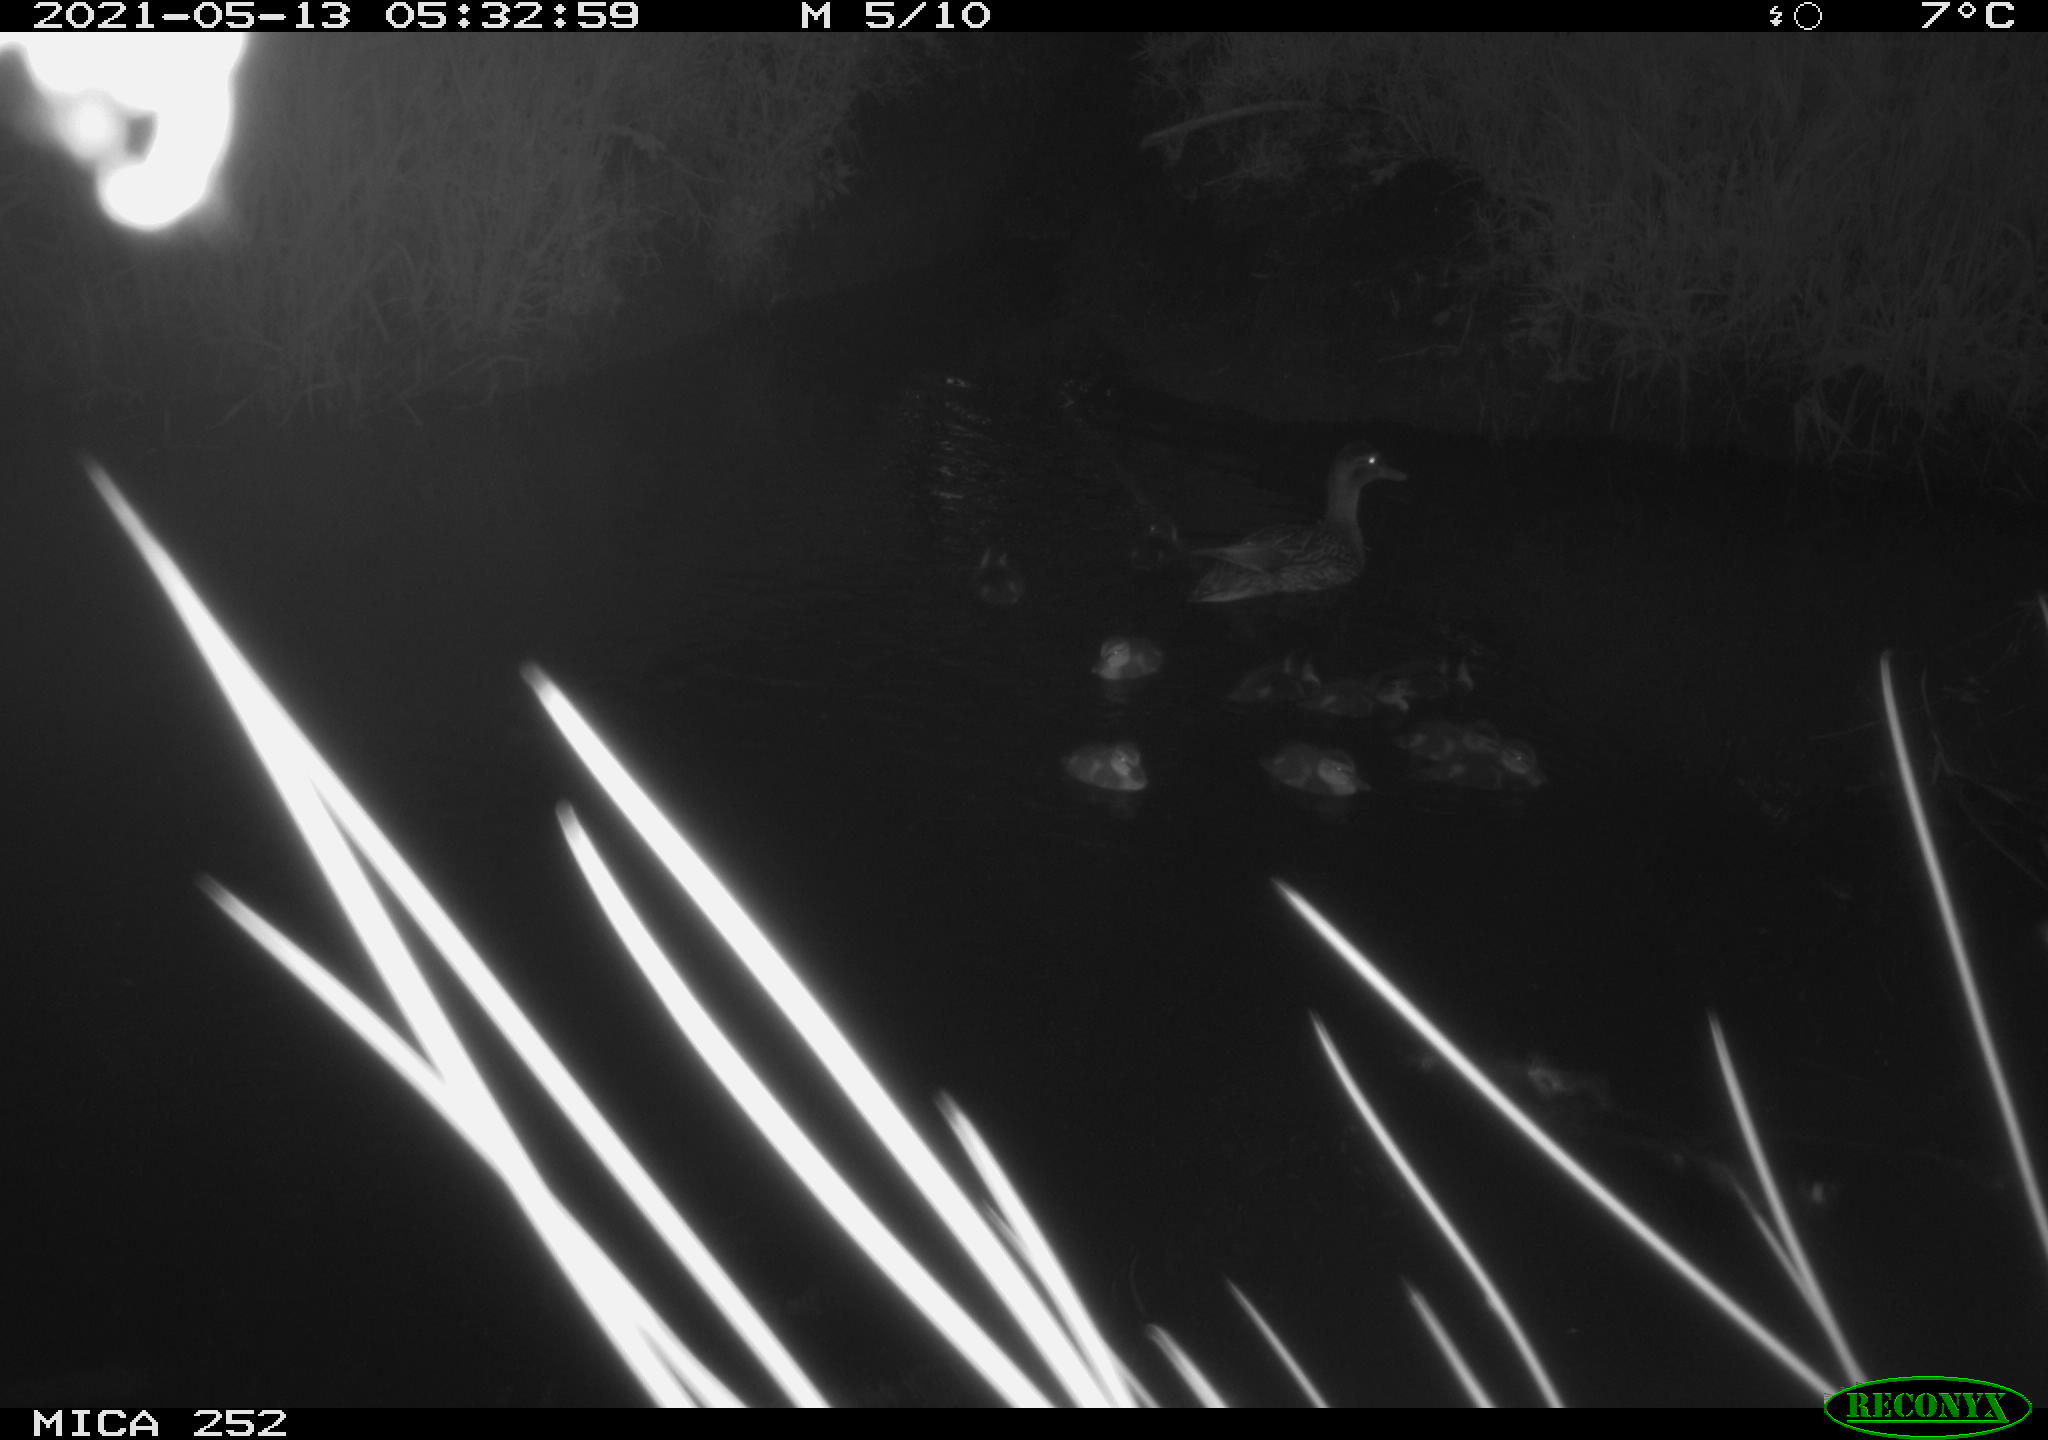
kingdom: Animalia
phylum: Chordata
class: Aves
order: Anseriformes
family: Anatidae
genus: Anas
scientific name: Anas platyrhynchos
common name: Mallard
